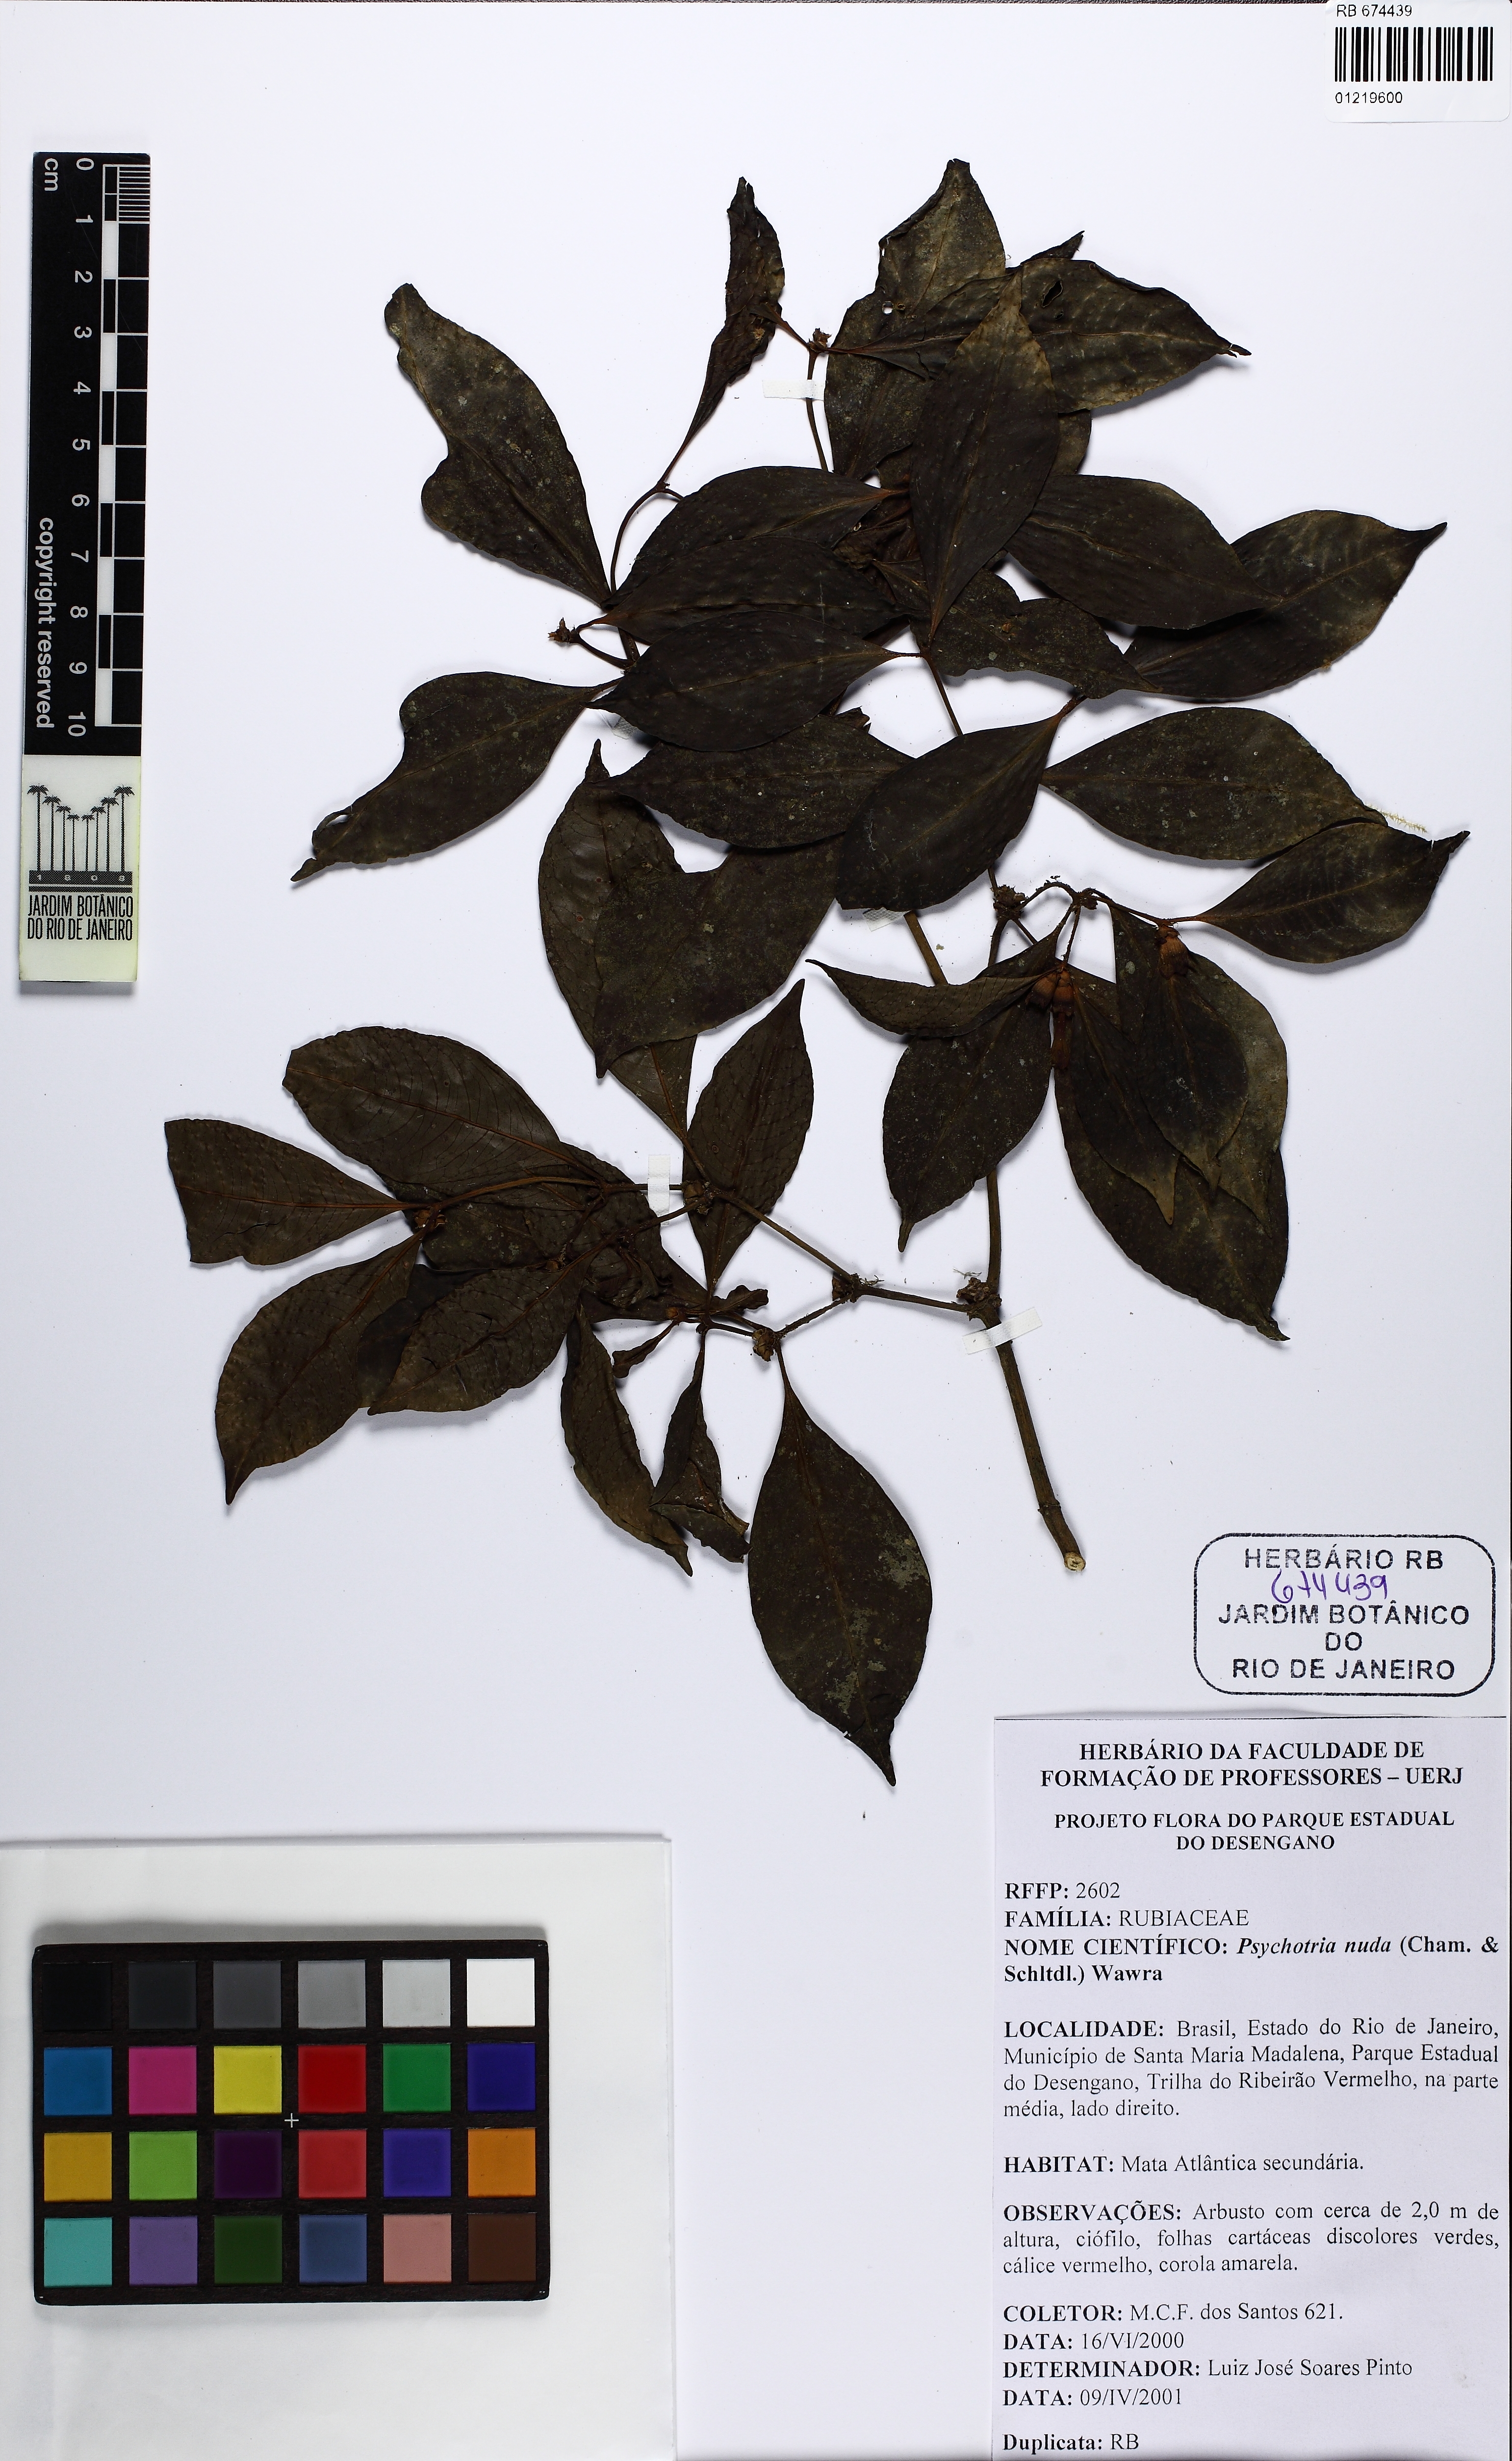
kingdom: Plantae
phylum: Tracheophyta
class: Magnoliopsida
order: Gentianales
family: Rubiaceae
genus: Psychotria
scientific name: Psychotria nuda
